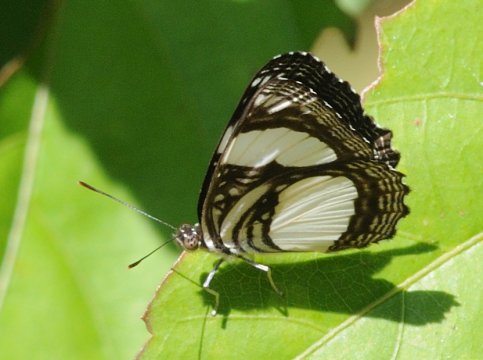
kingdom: Animalia
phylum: Arthropoda
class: Insecta
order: Lepidoptera
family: Nymphalidae
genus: Neptis
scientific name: Neptis serena
